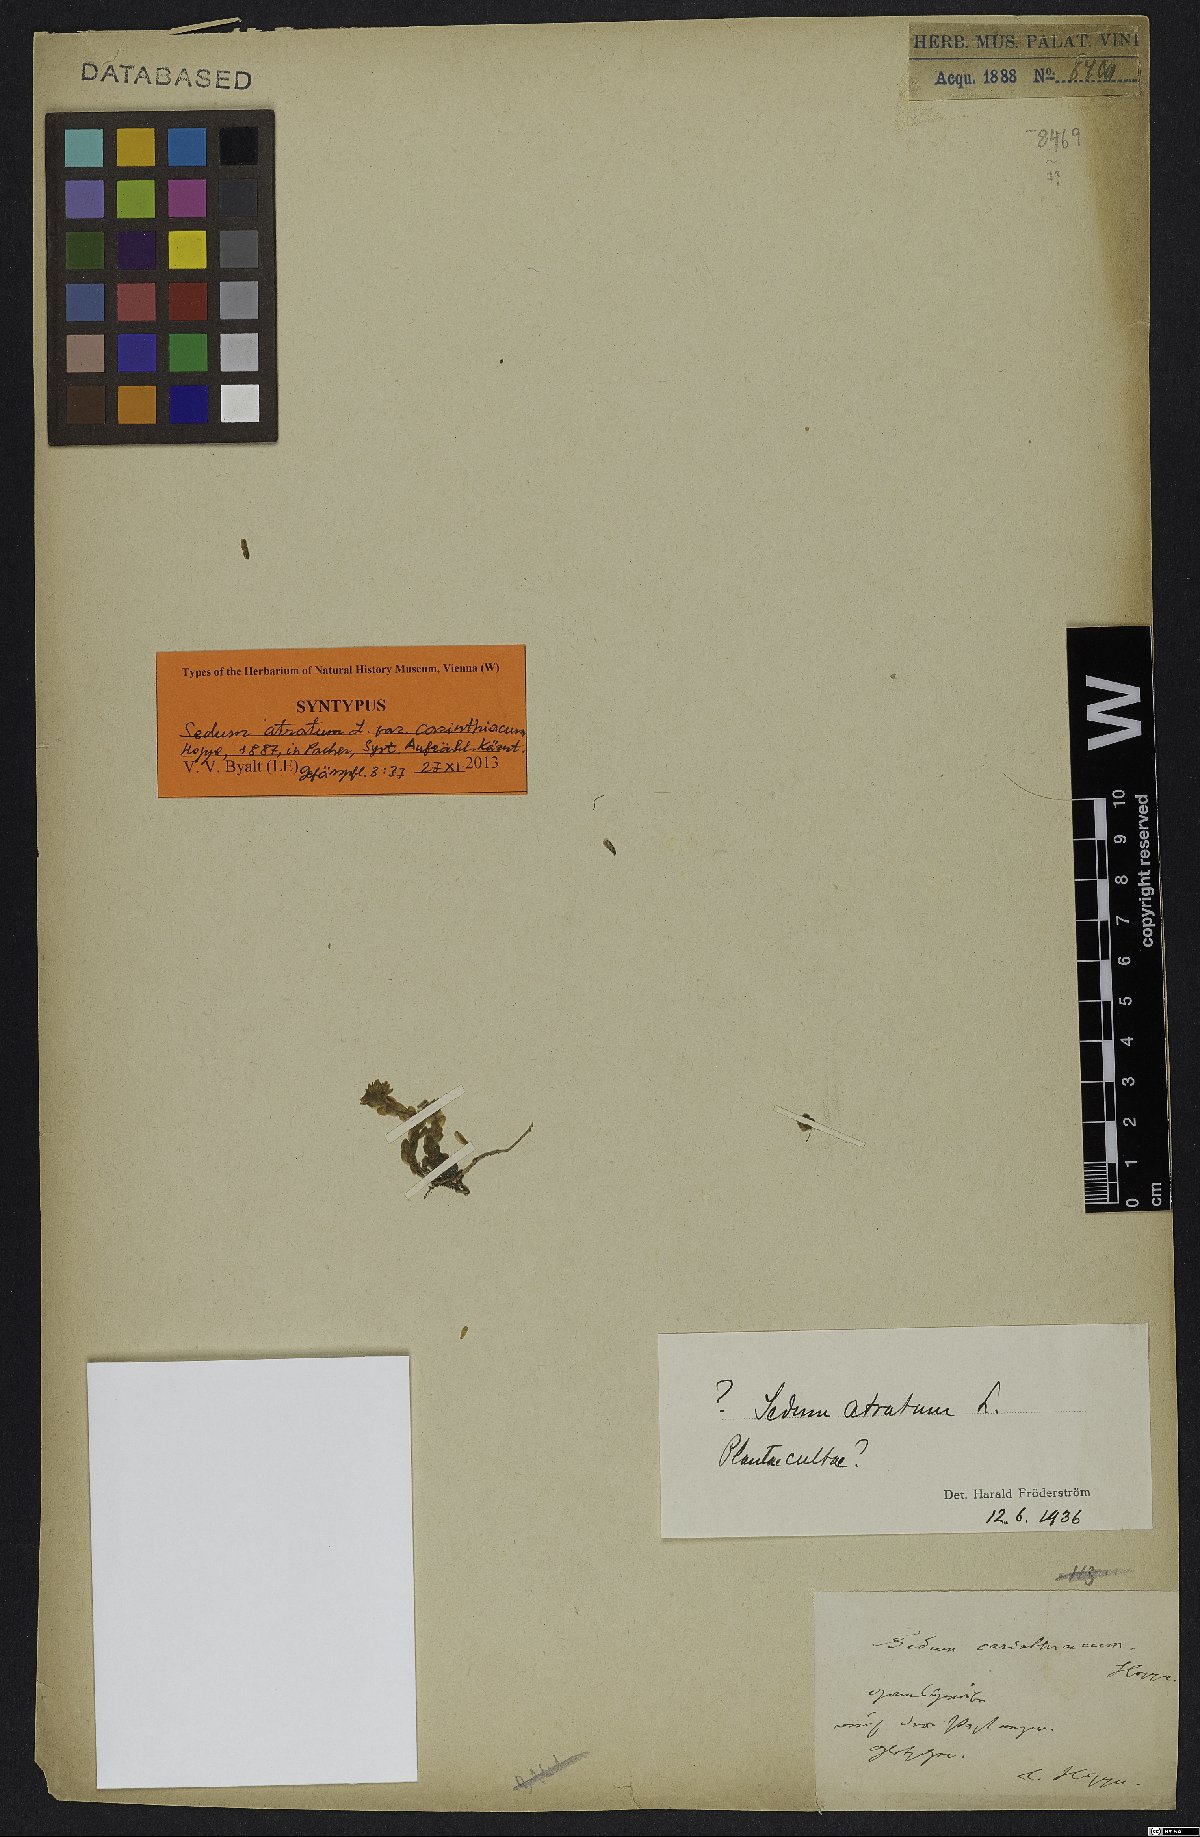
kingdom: Plantae
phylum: Tracheophyta
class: Magnoliopsida
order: Saxifragales
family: Crassulaceae
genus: Sedum
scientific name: Sedum atratum
